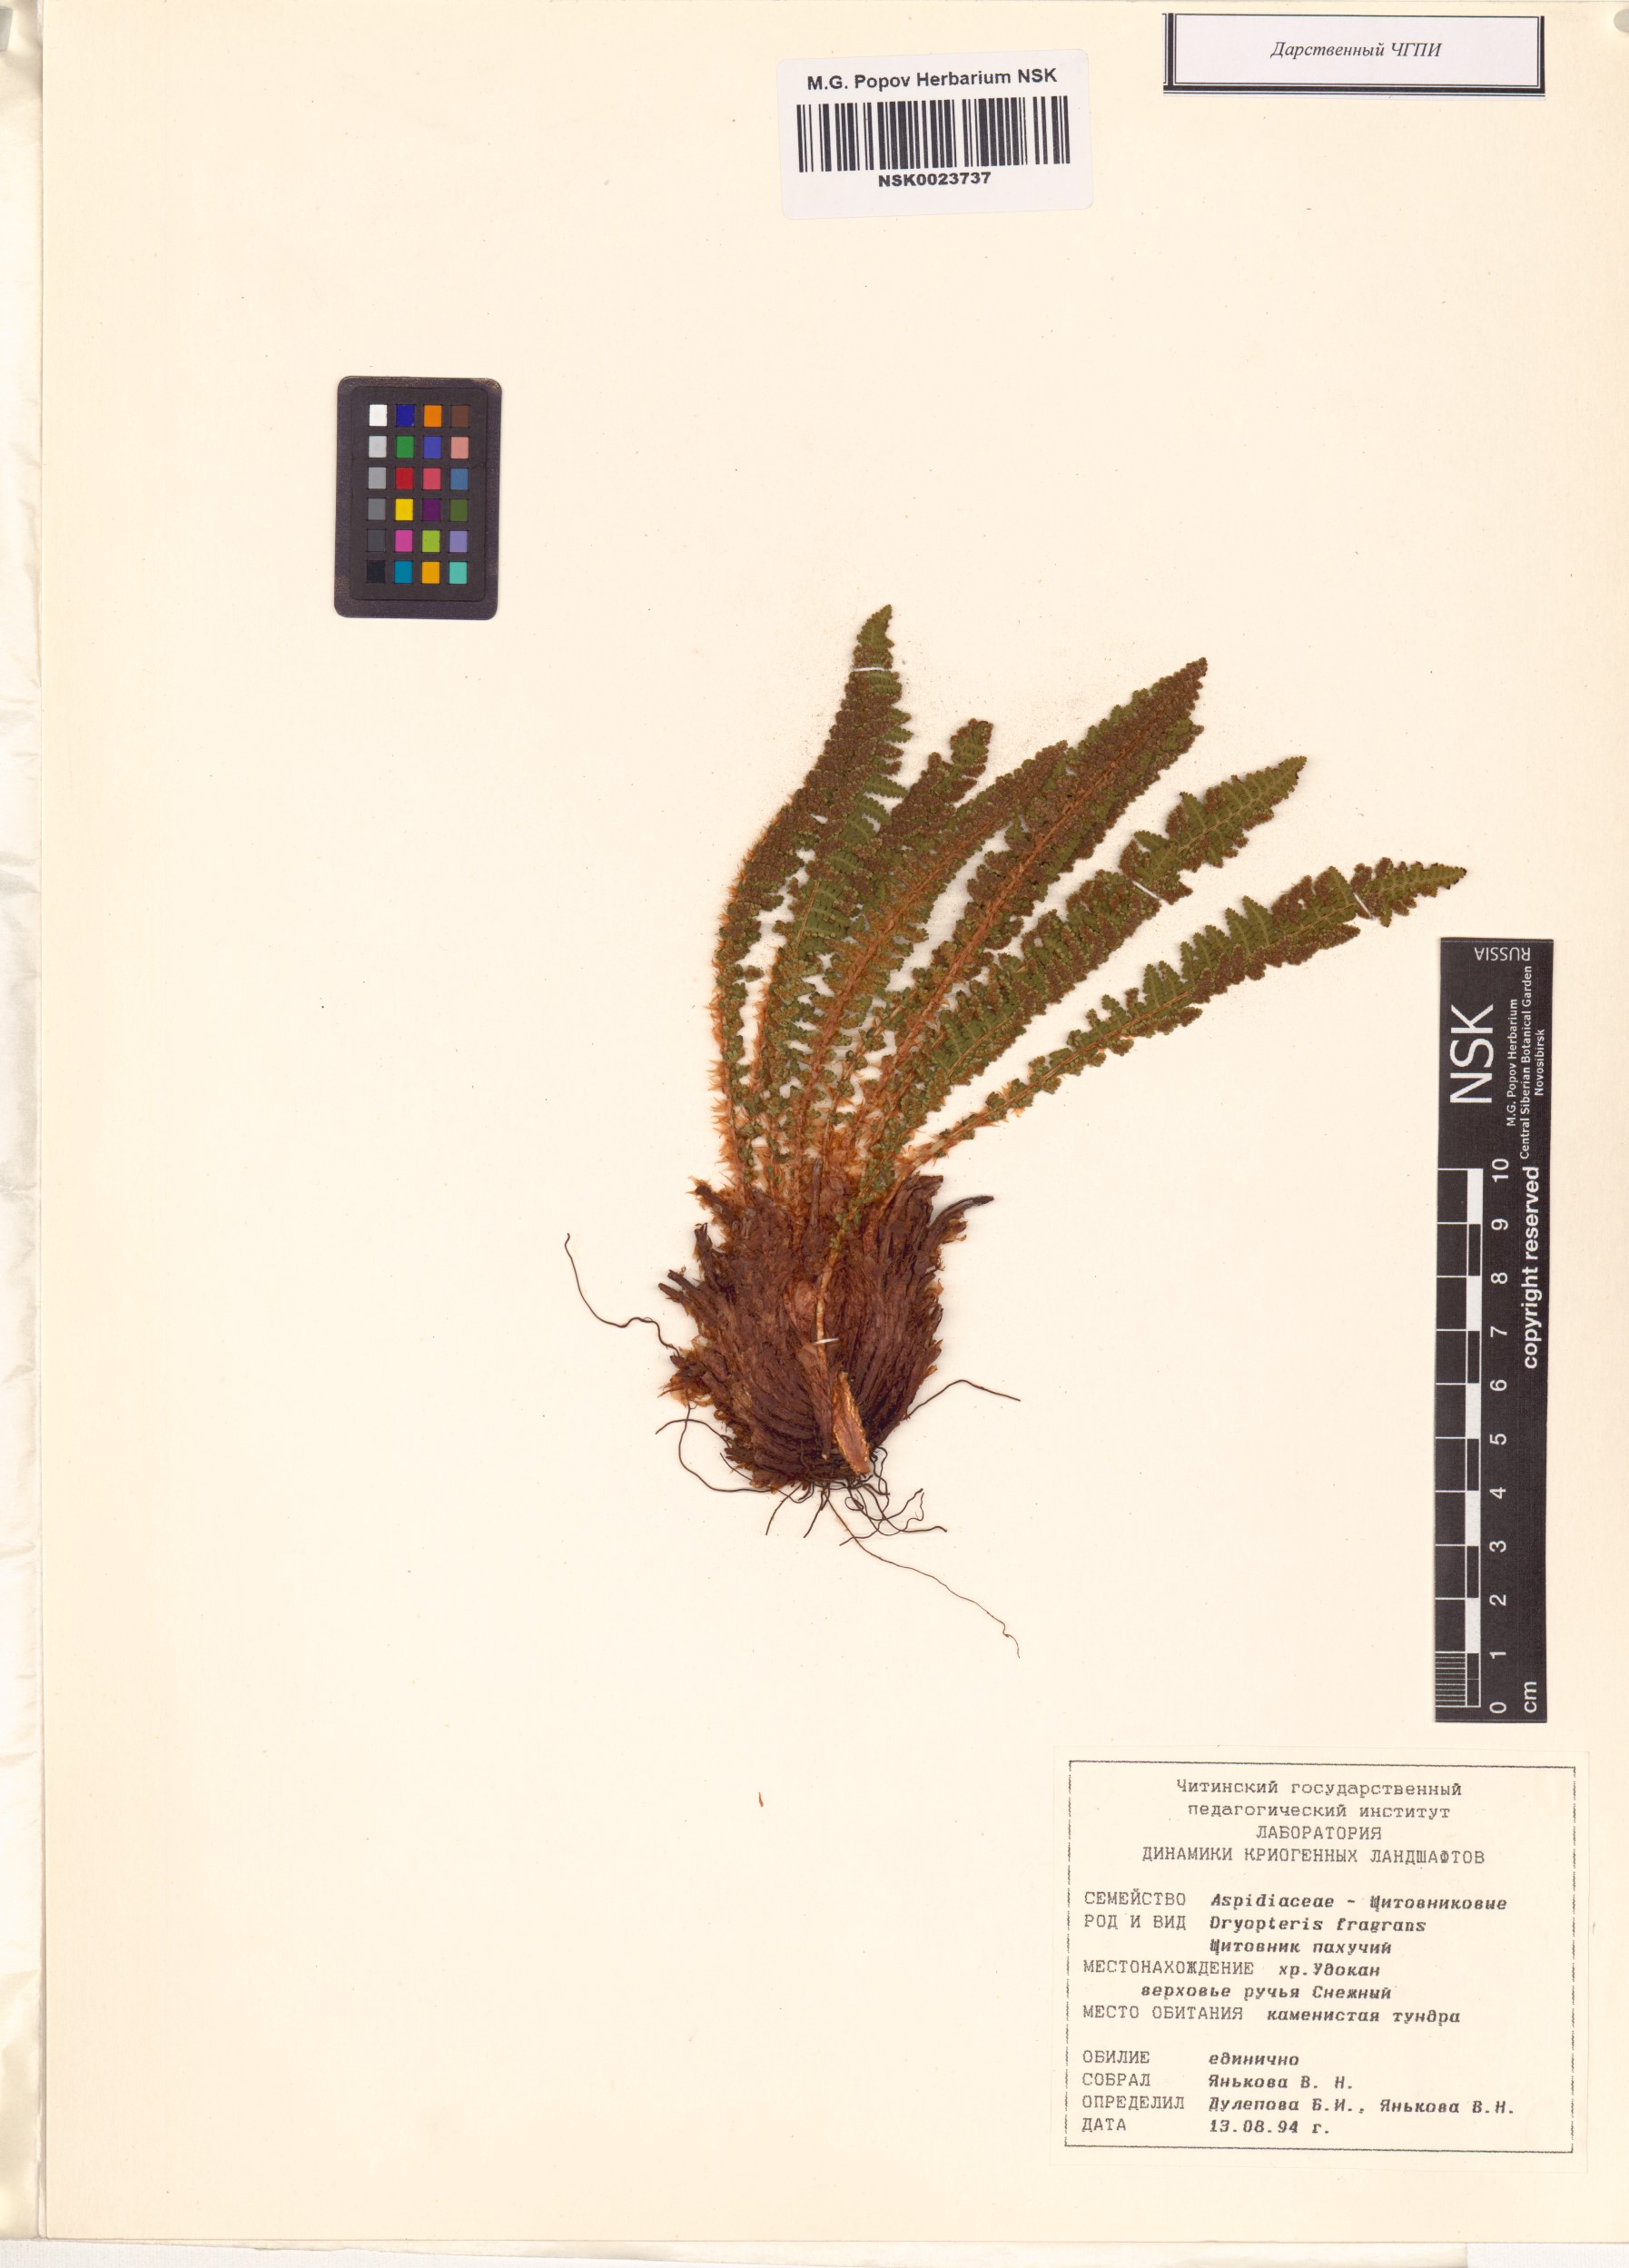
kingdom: Plantae
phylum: Tracheophyta
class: Polypodiopsida
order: Polypodiales
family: Dryopteridaceae
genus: Dryopteris
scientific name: Dryopteris fragrans
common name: Fragrant wood fern
